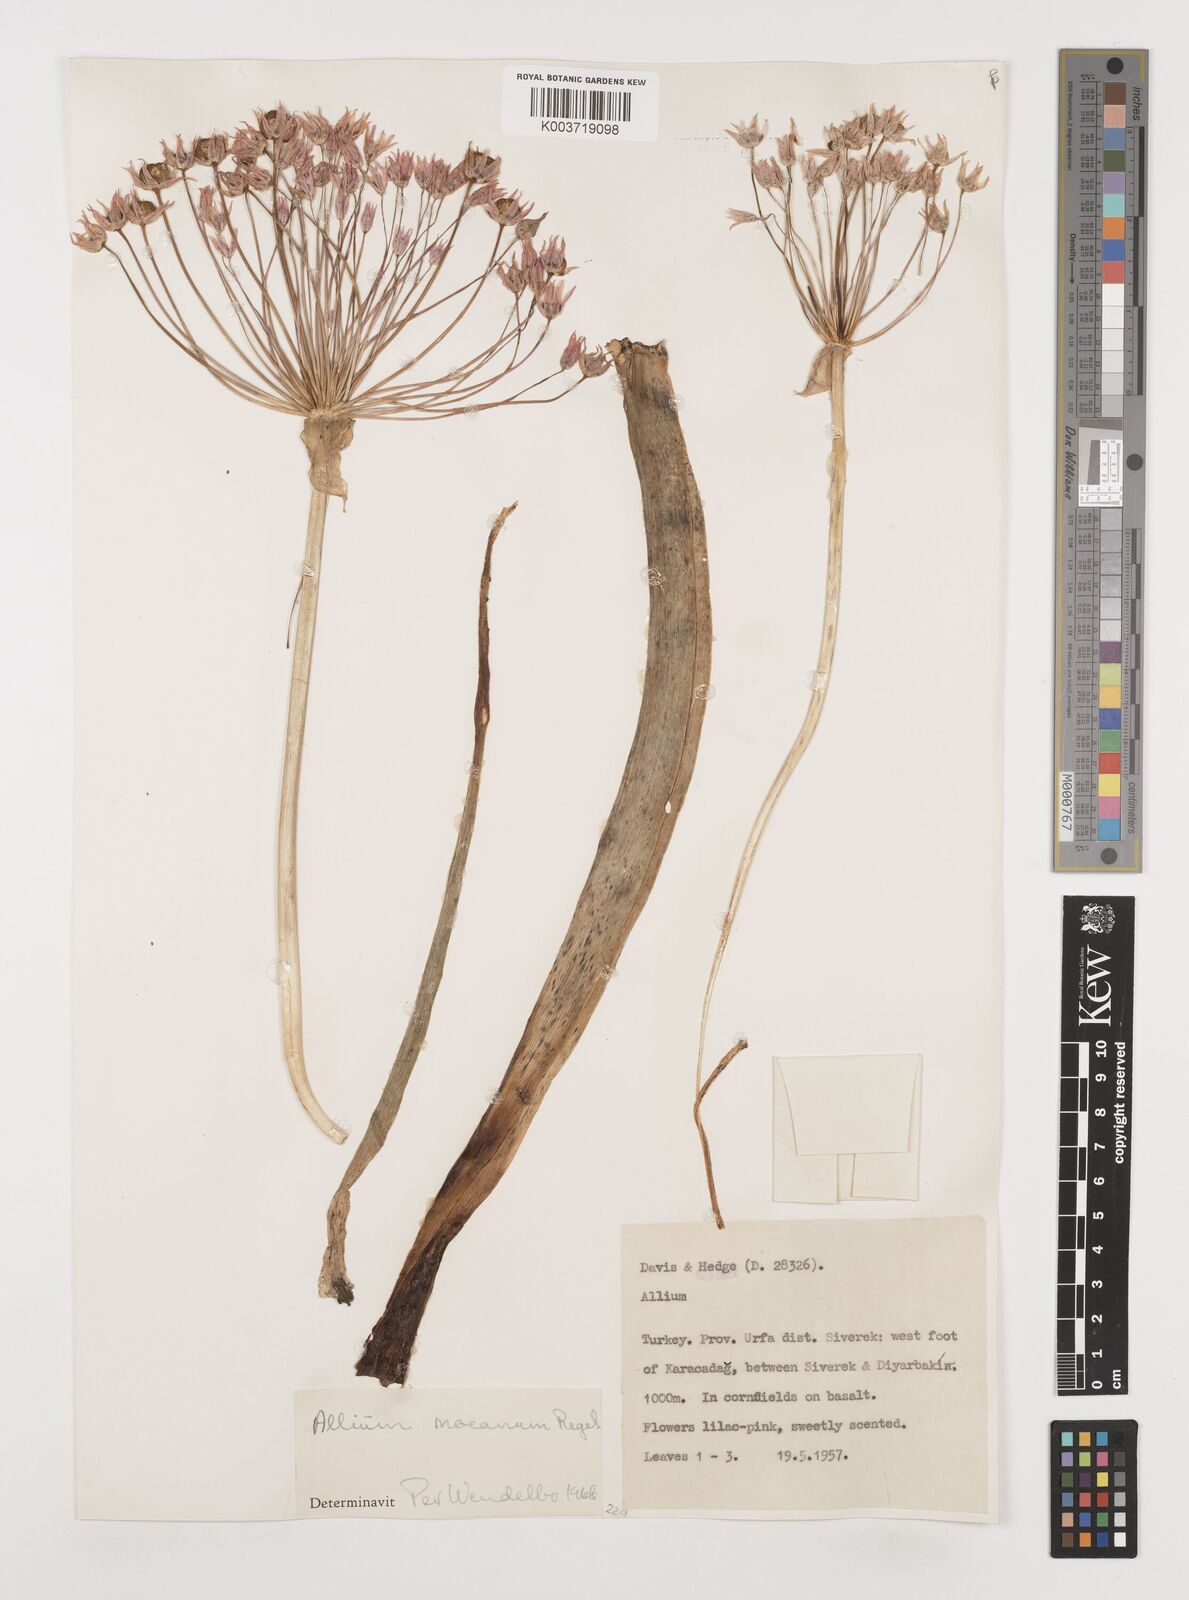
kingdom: Plantae
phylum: Tracheophyta
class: Liliopsida
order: Asparagales
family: Amaryllidaceae
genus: Allium
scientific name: Allium noeanum
